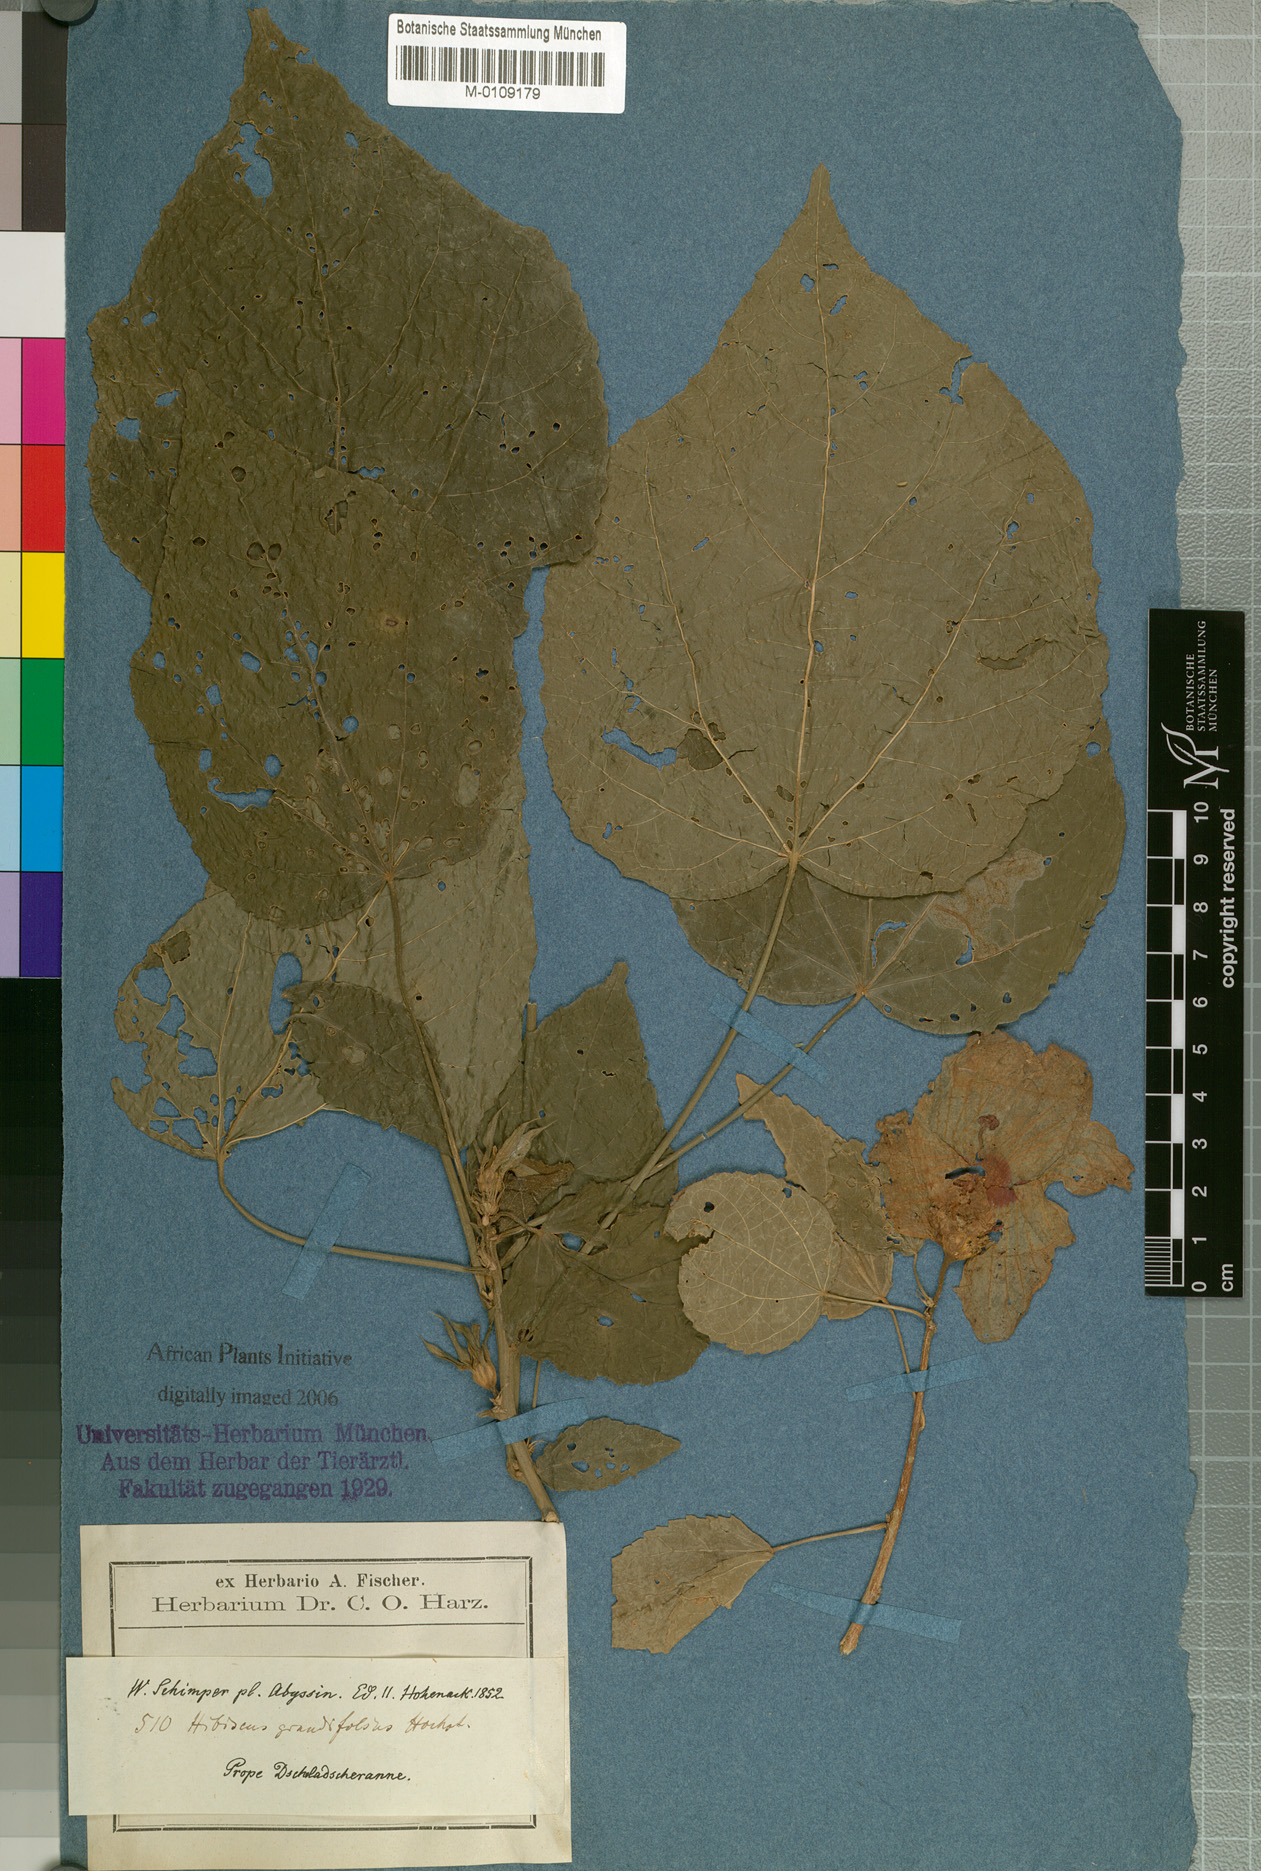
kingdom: Plantae
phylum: Tracheophyta
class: Magnoliopsida
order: Malvales
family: Malvaceae
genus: Hibiscus
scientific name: Hibiscus calyphyllus
